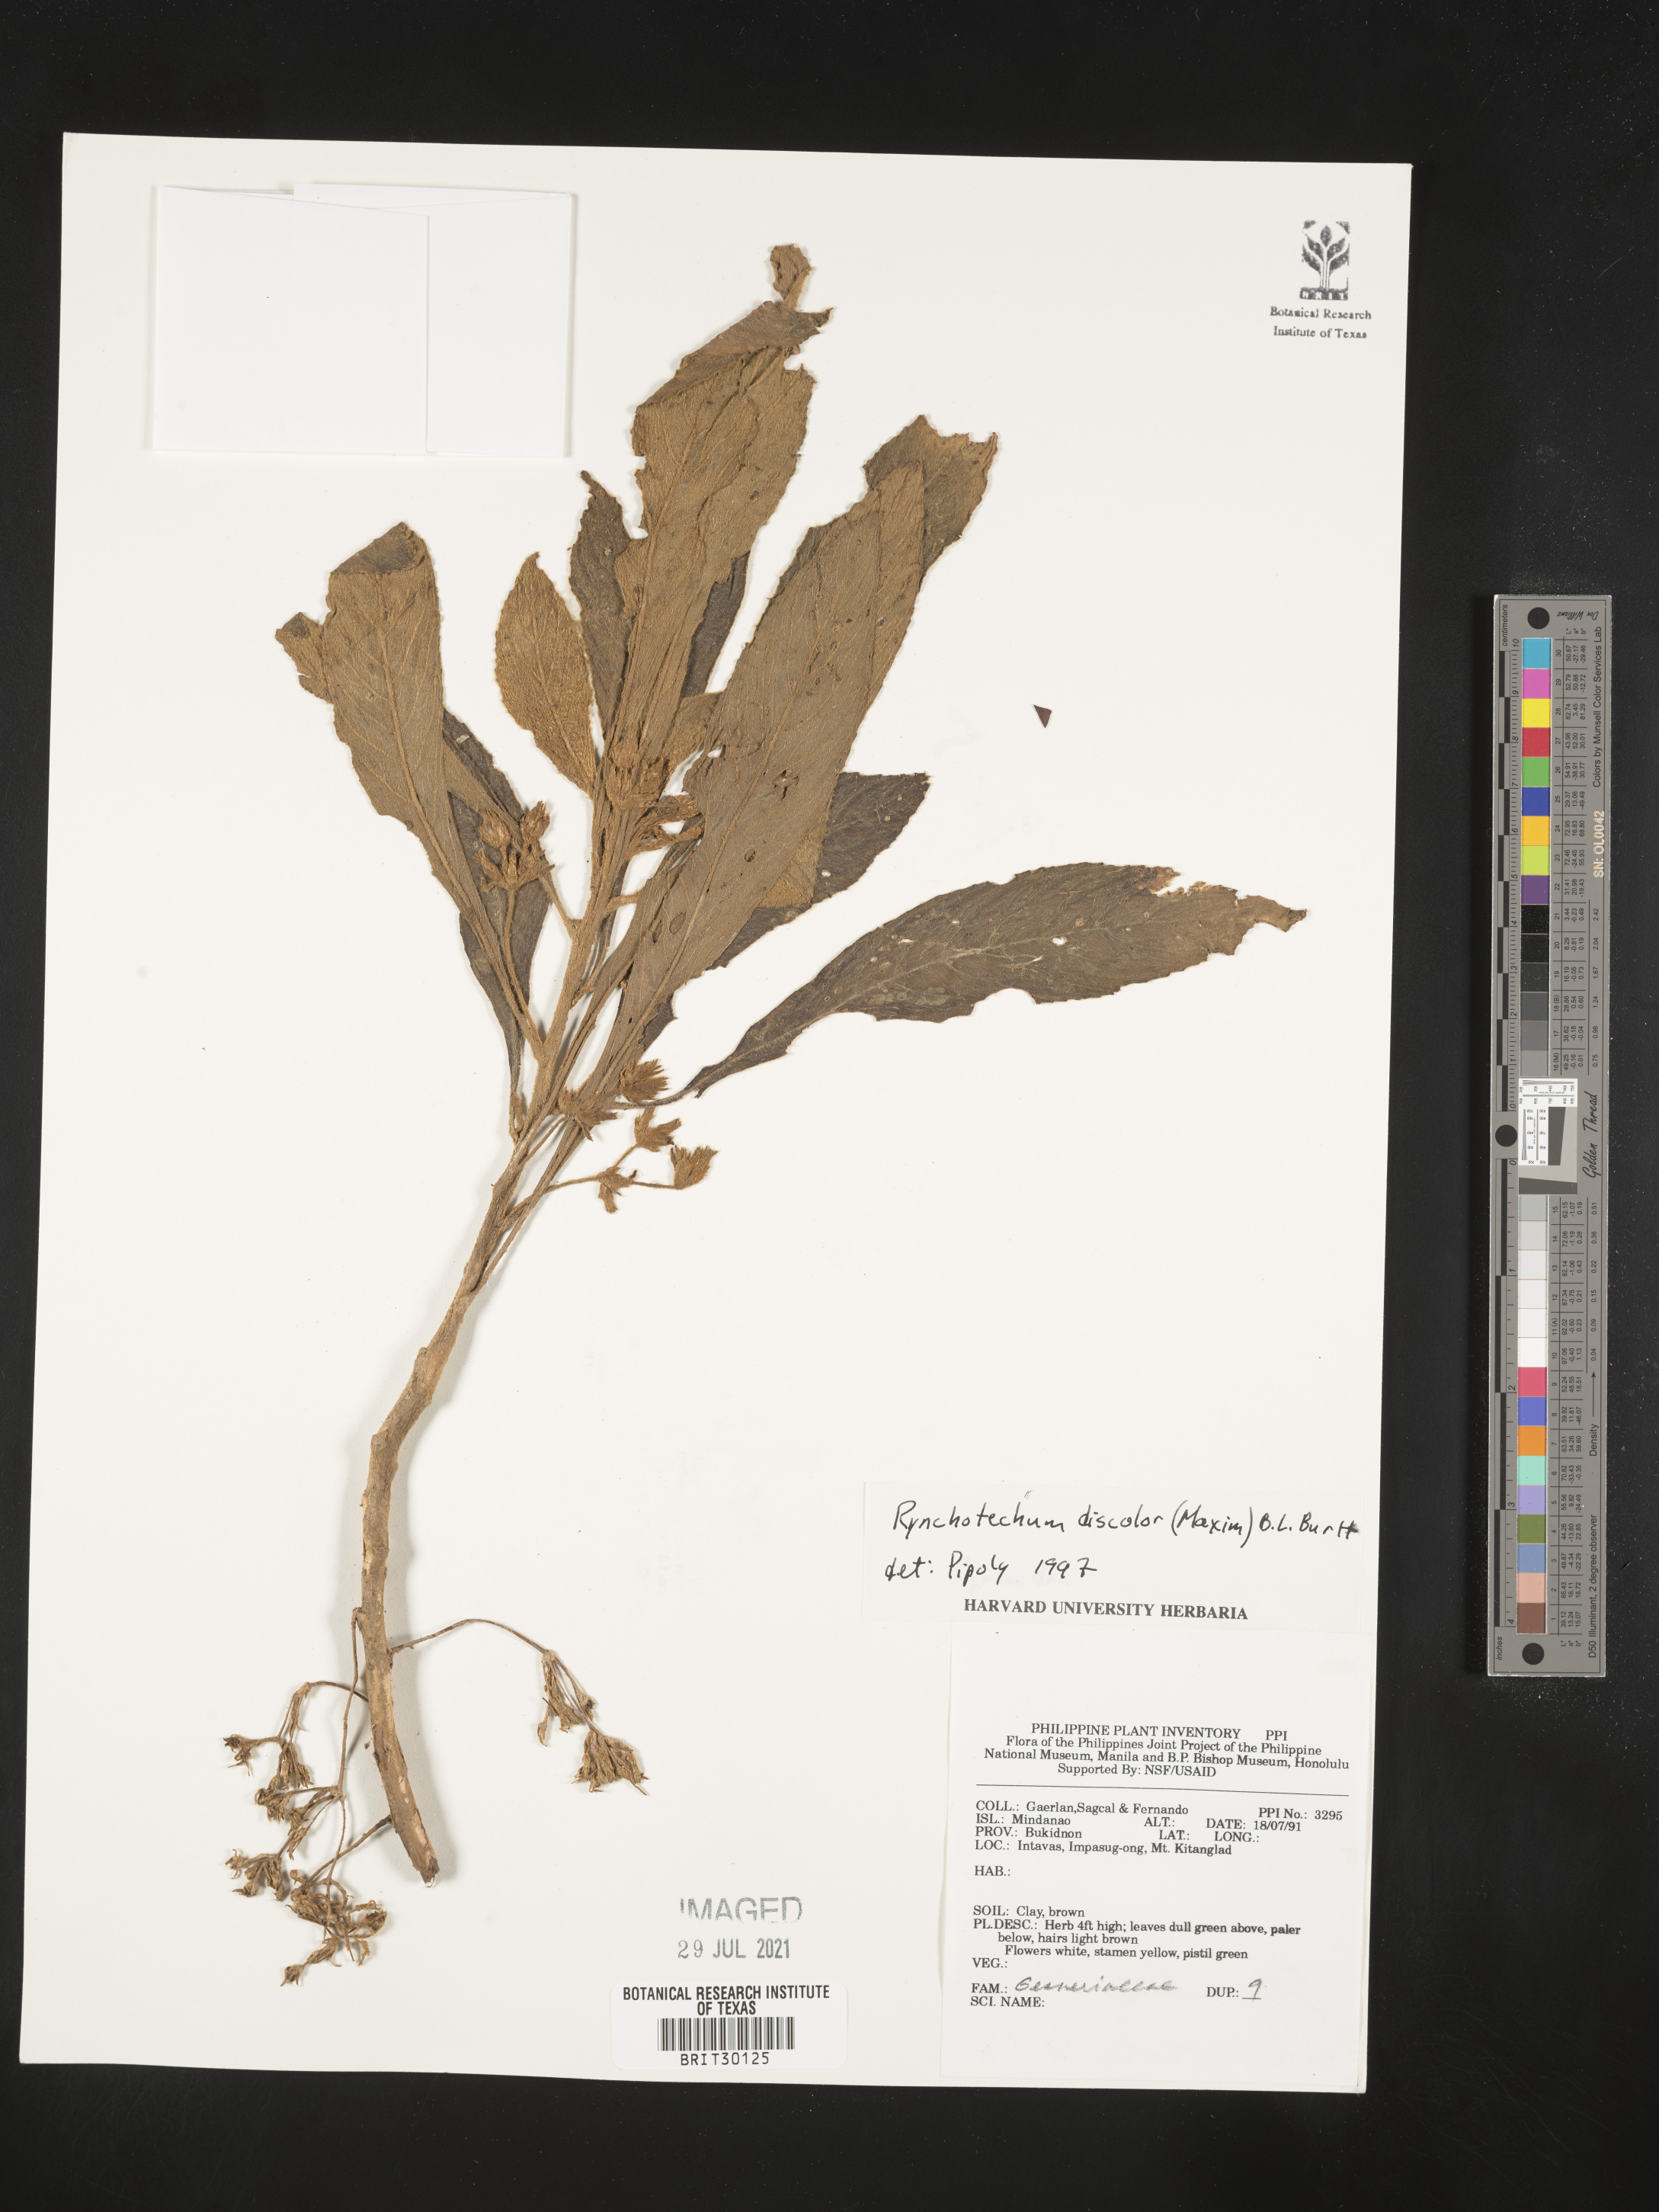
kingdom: Plantae
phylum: Tracheophyta
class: Magnoliopsida
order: Lamiales
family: Gesneriaceae
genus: Rhynchotechum
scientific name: Rhynchotechum discolor
